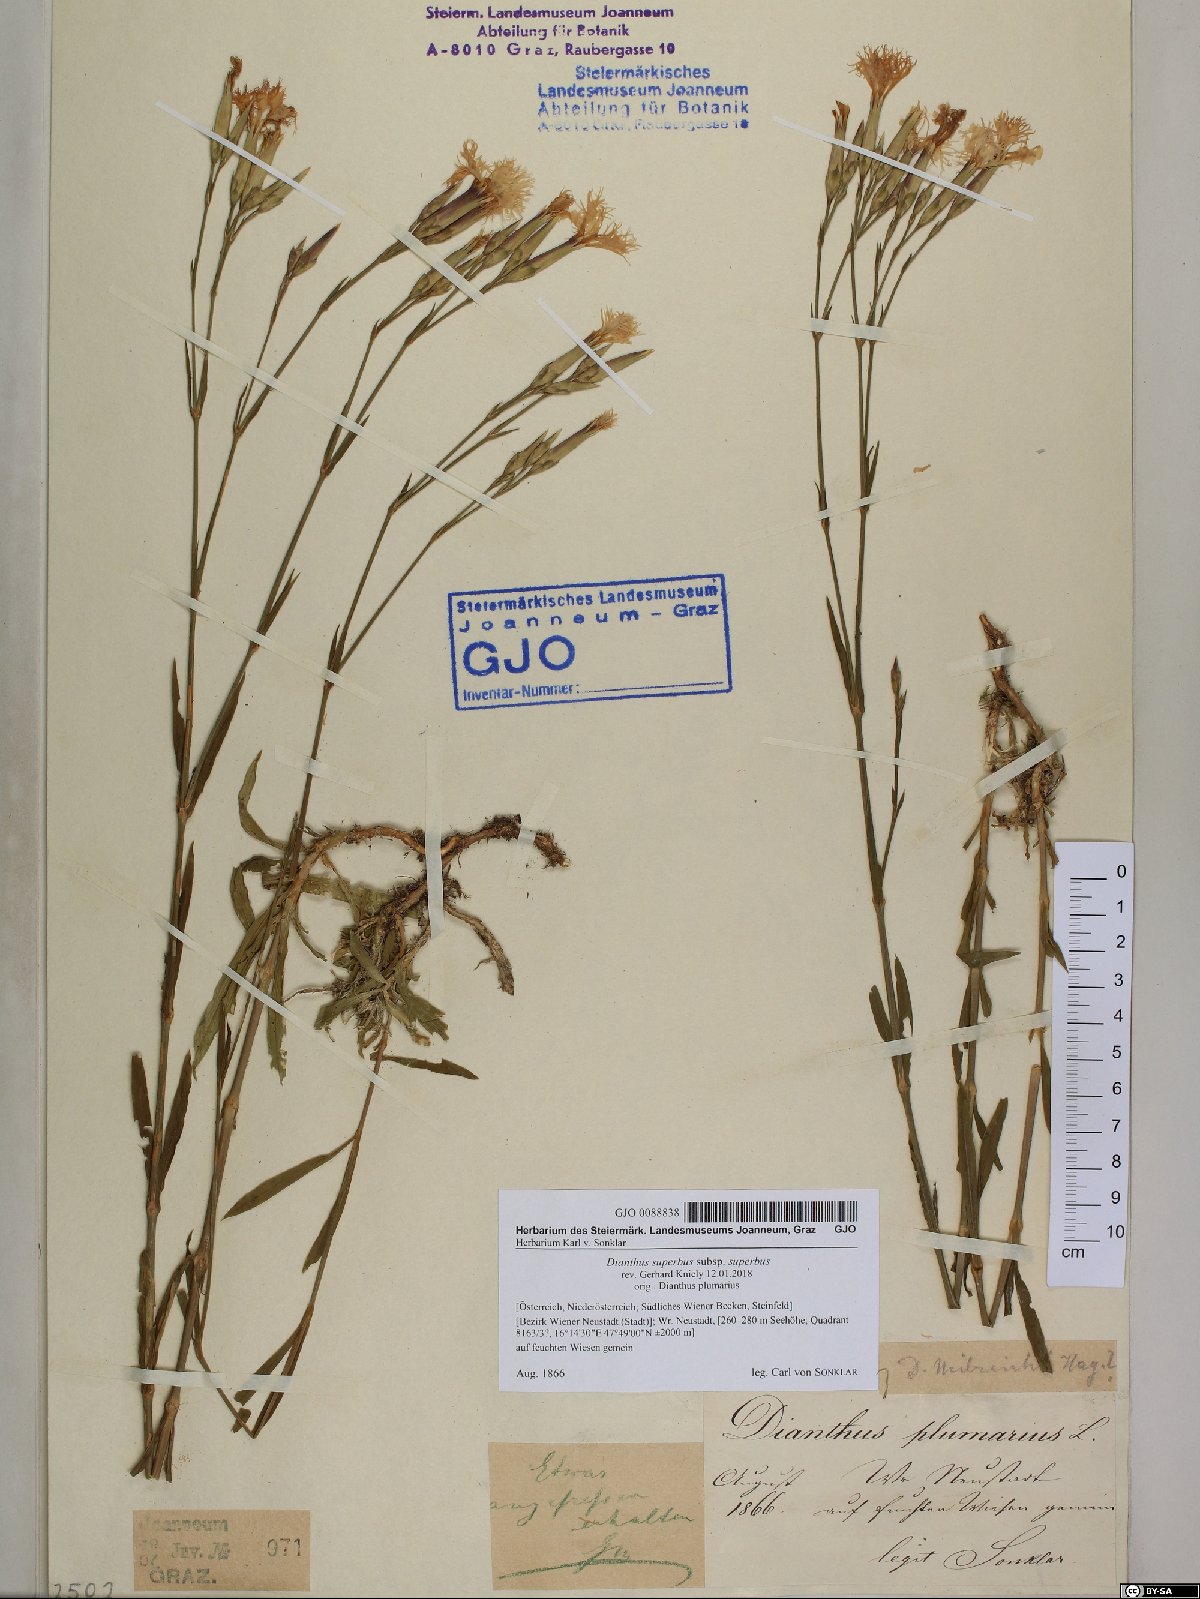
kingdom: Plantae
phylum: Tracheophyta
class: Magnoliopsida
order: Caryophyllales
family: Caryophyllaceae
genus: Dianthus
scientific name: Dianthus superbus
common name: Fringed pink
